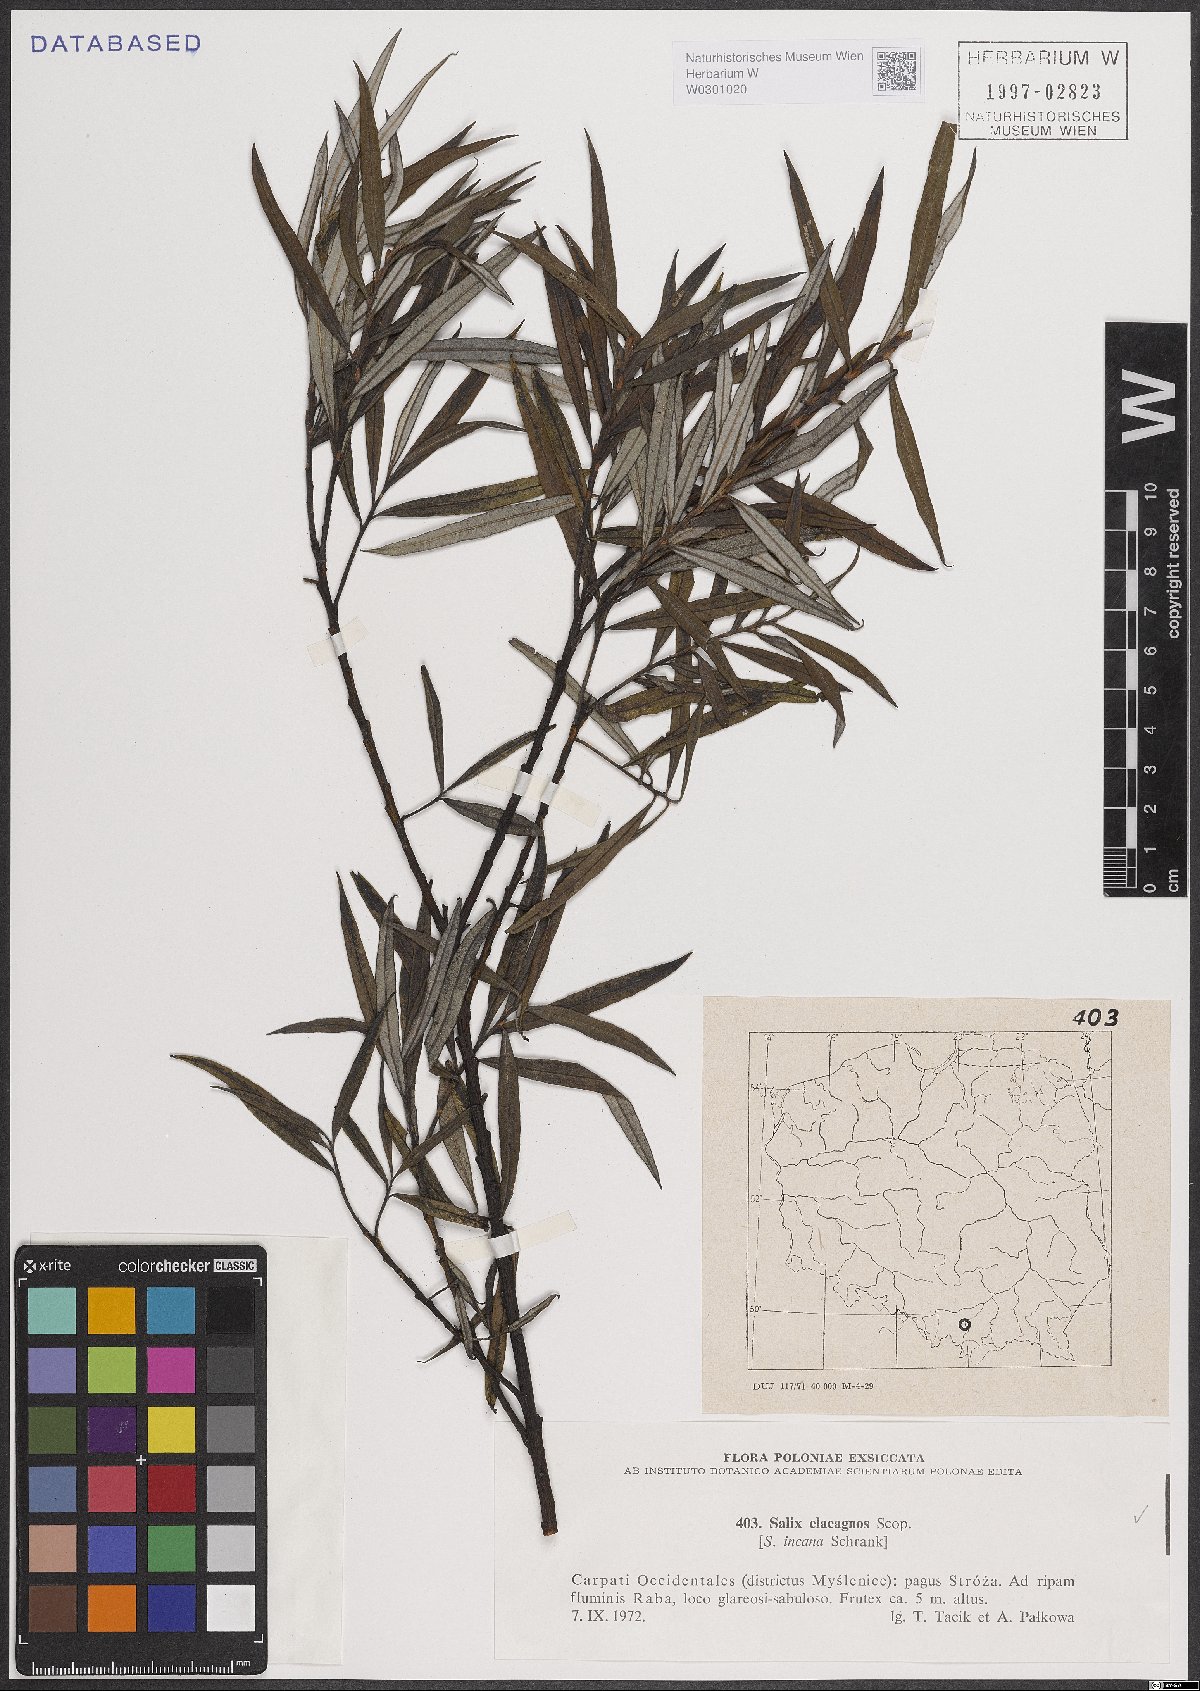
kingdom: Plantae
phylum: Tracheophyta
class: Magnoliopsida
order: Malpighiales
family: Salicaceae
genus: Salix
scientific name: Salix eleagnos
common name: Elaeagnus willow
